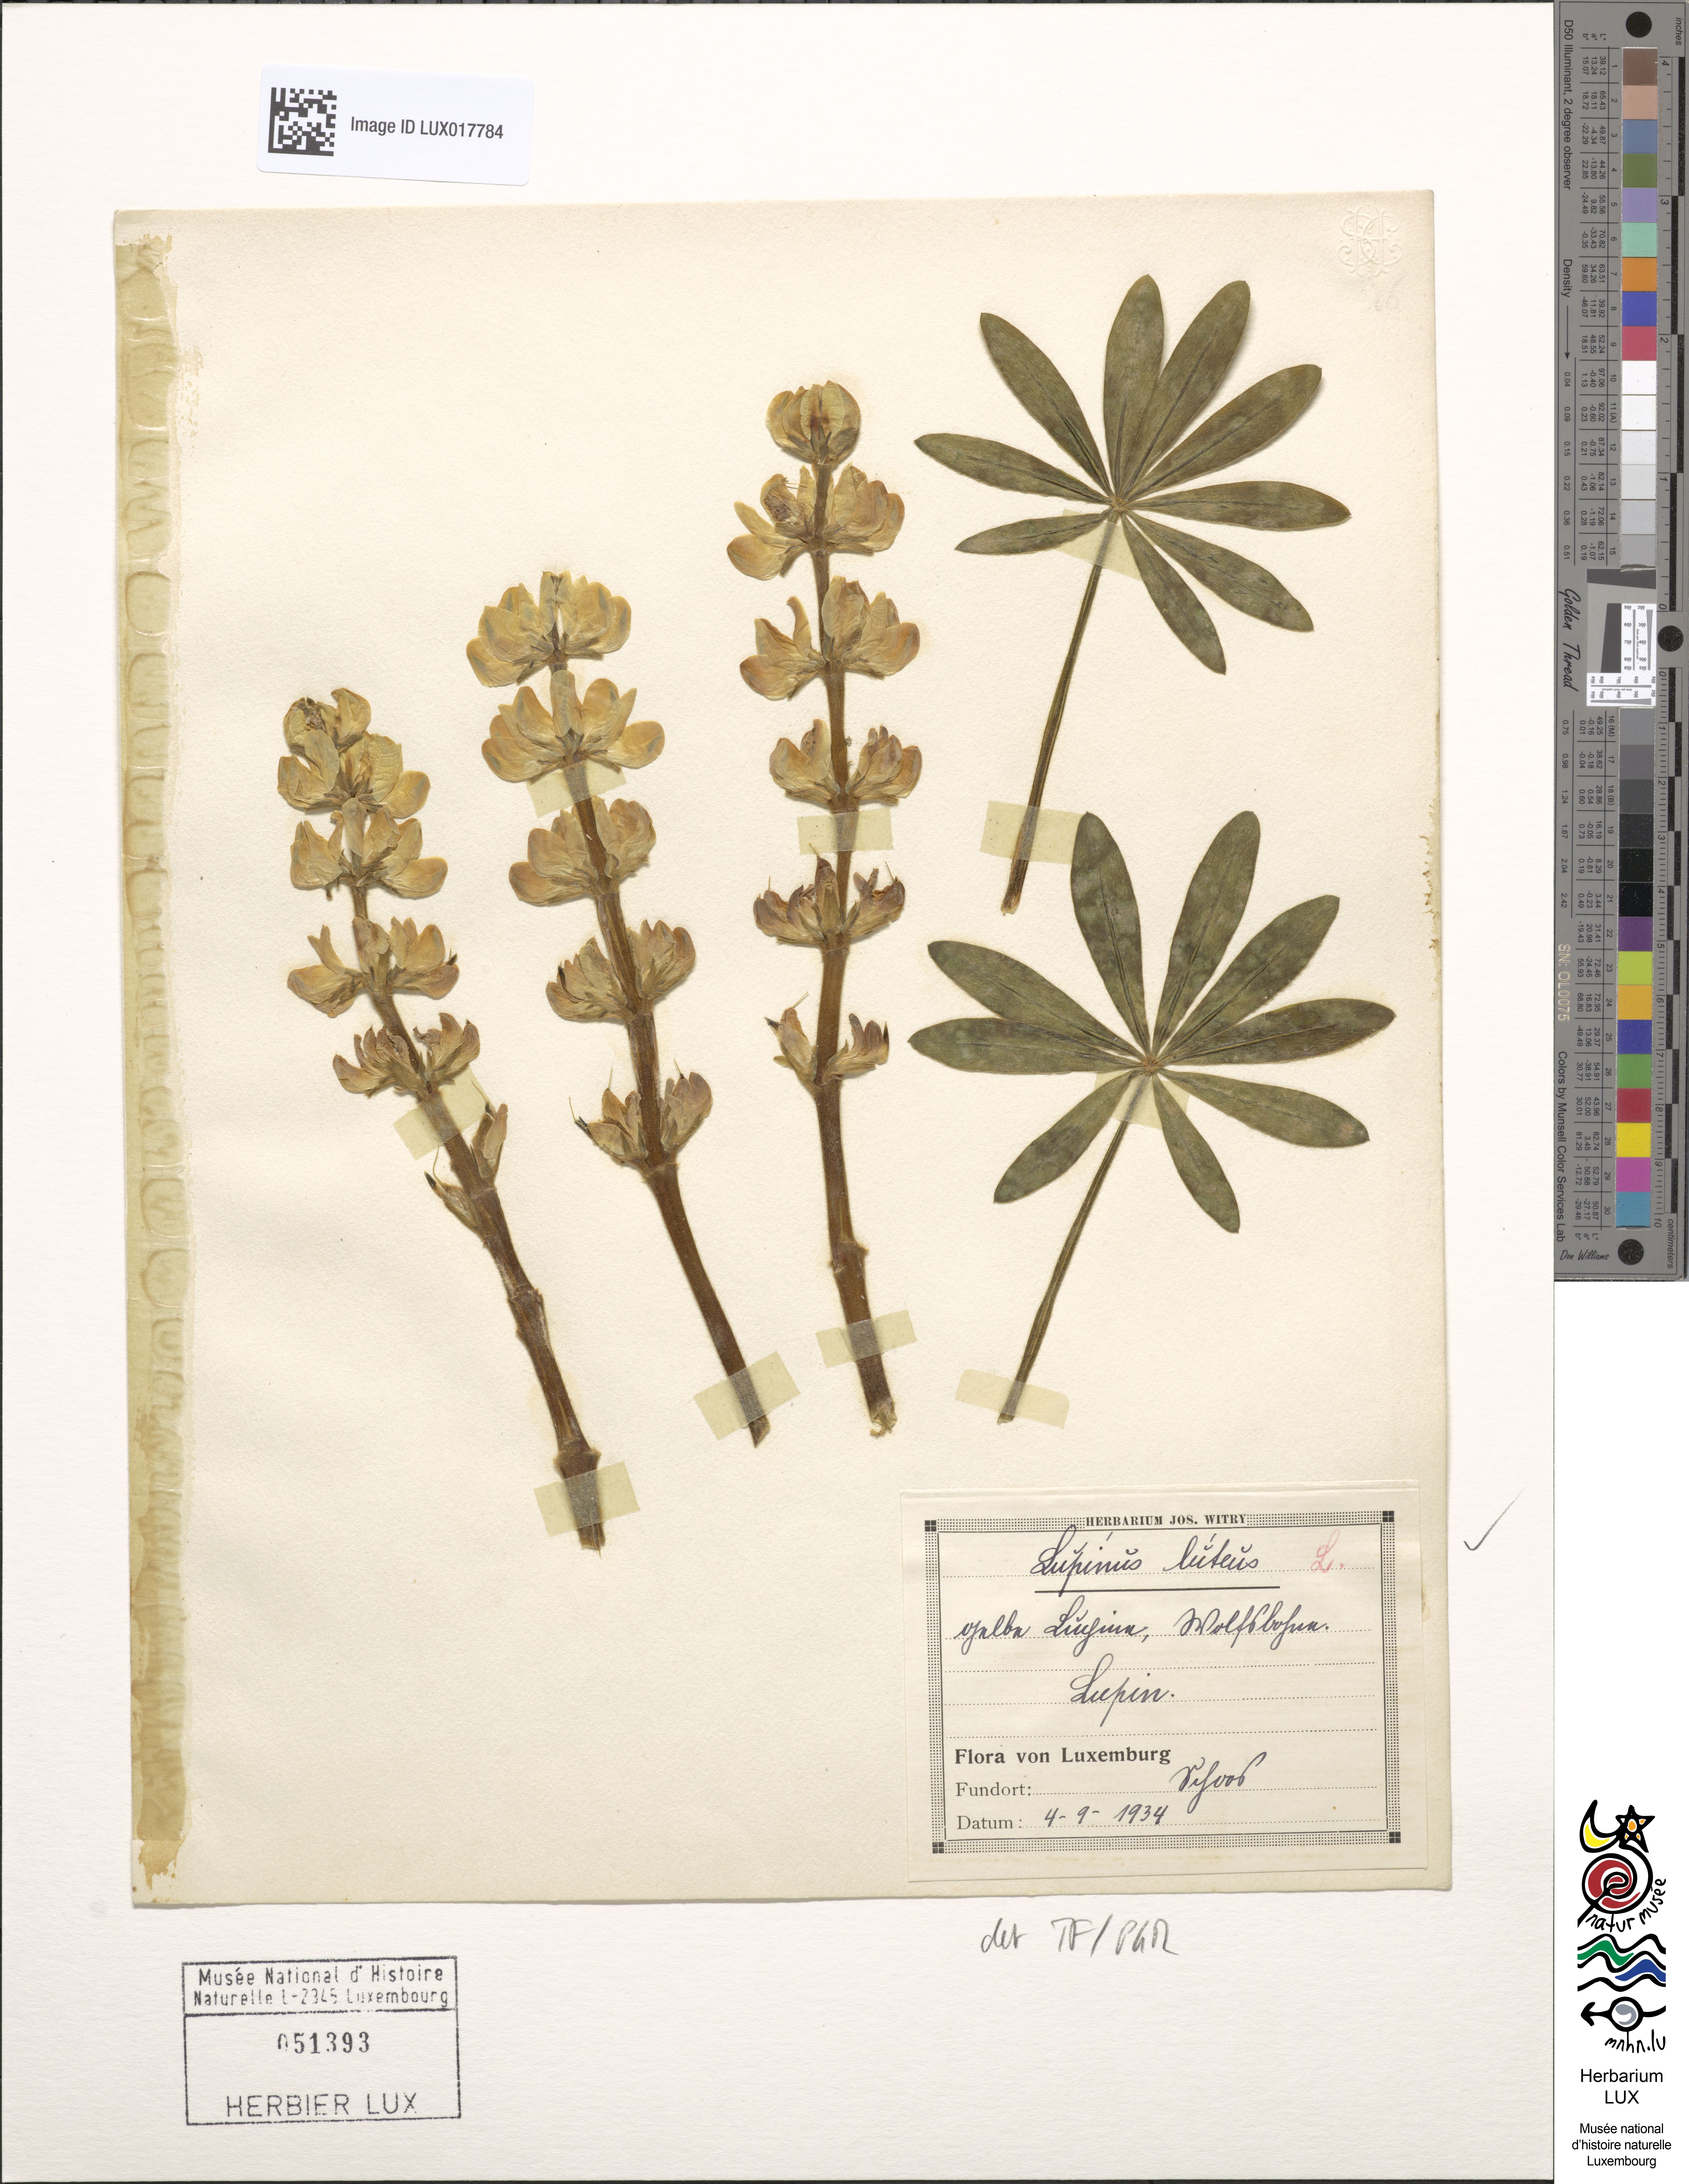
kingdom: Plantae
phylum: Tracheophyta
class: Magnoliopsida
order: Fabales
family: Fabaceae
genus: Lupinus
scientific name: Lupinus luteus
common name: European yellow lupine
